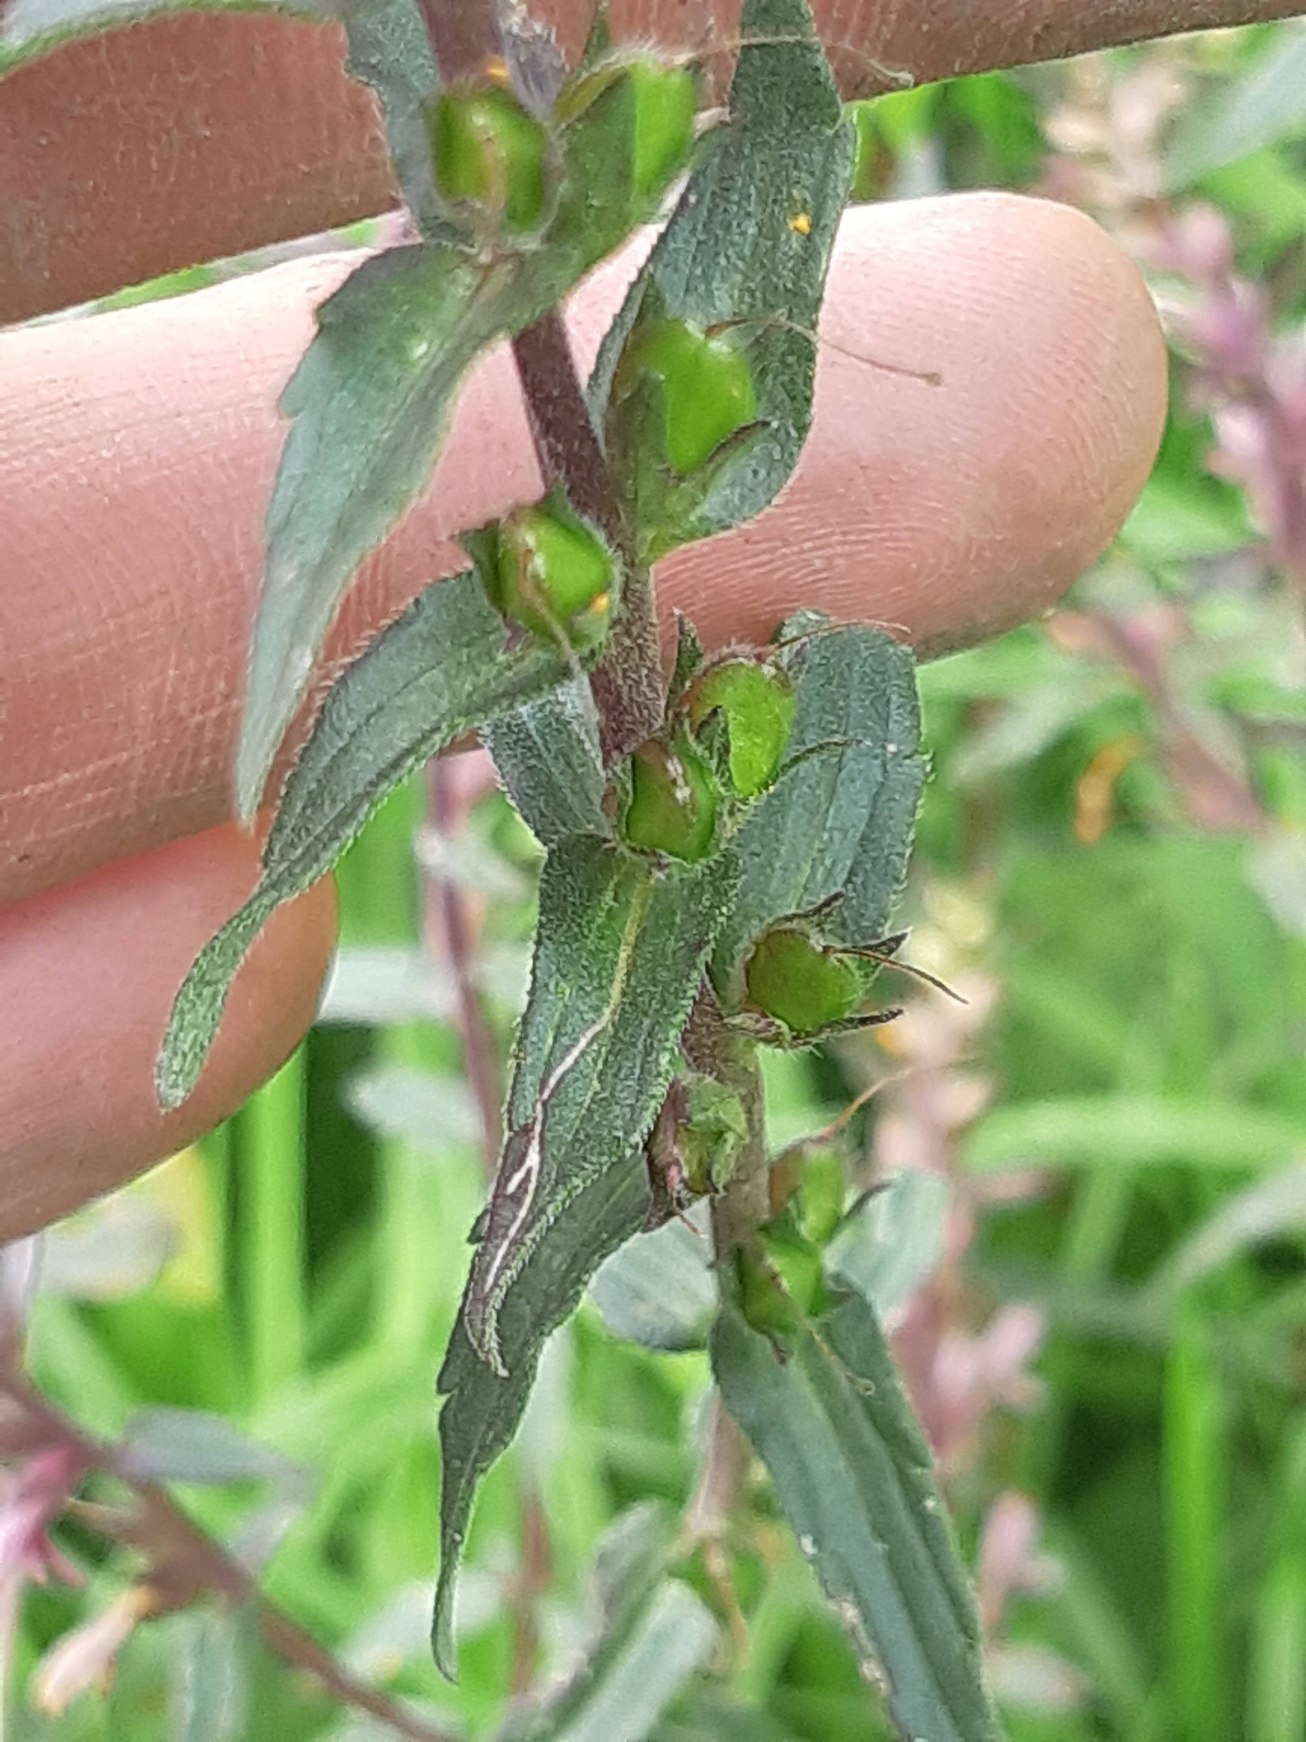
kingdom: Plantae
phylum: Tracheophyta
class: Magnoliopsida
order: Lamiales
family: Orobanchaceae
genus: Odontites
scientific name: Odontites vernus
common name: Mark-rødtop
